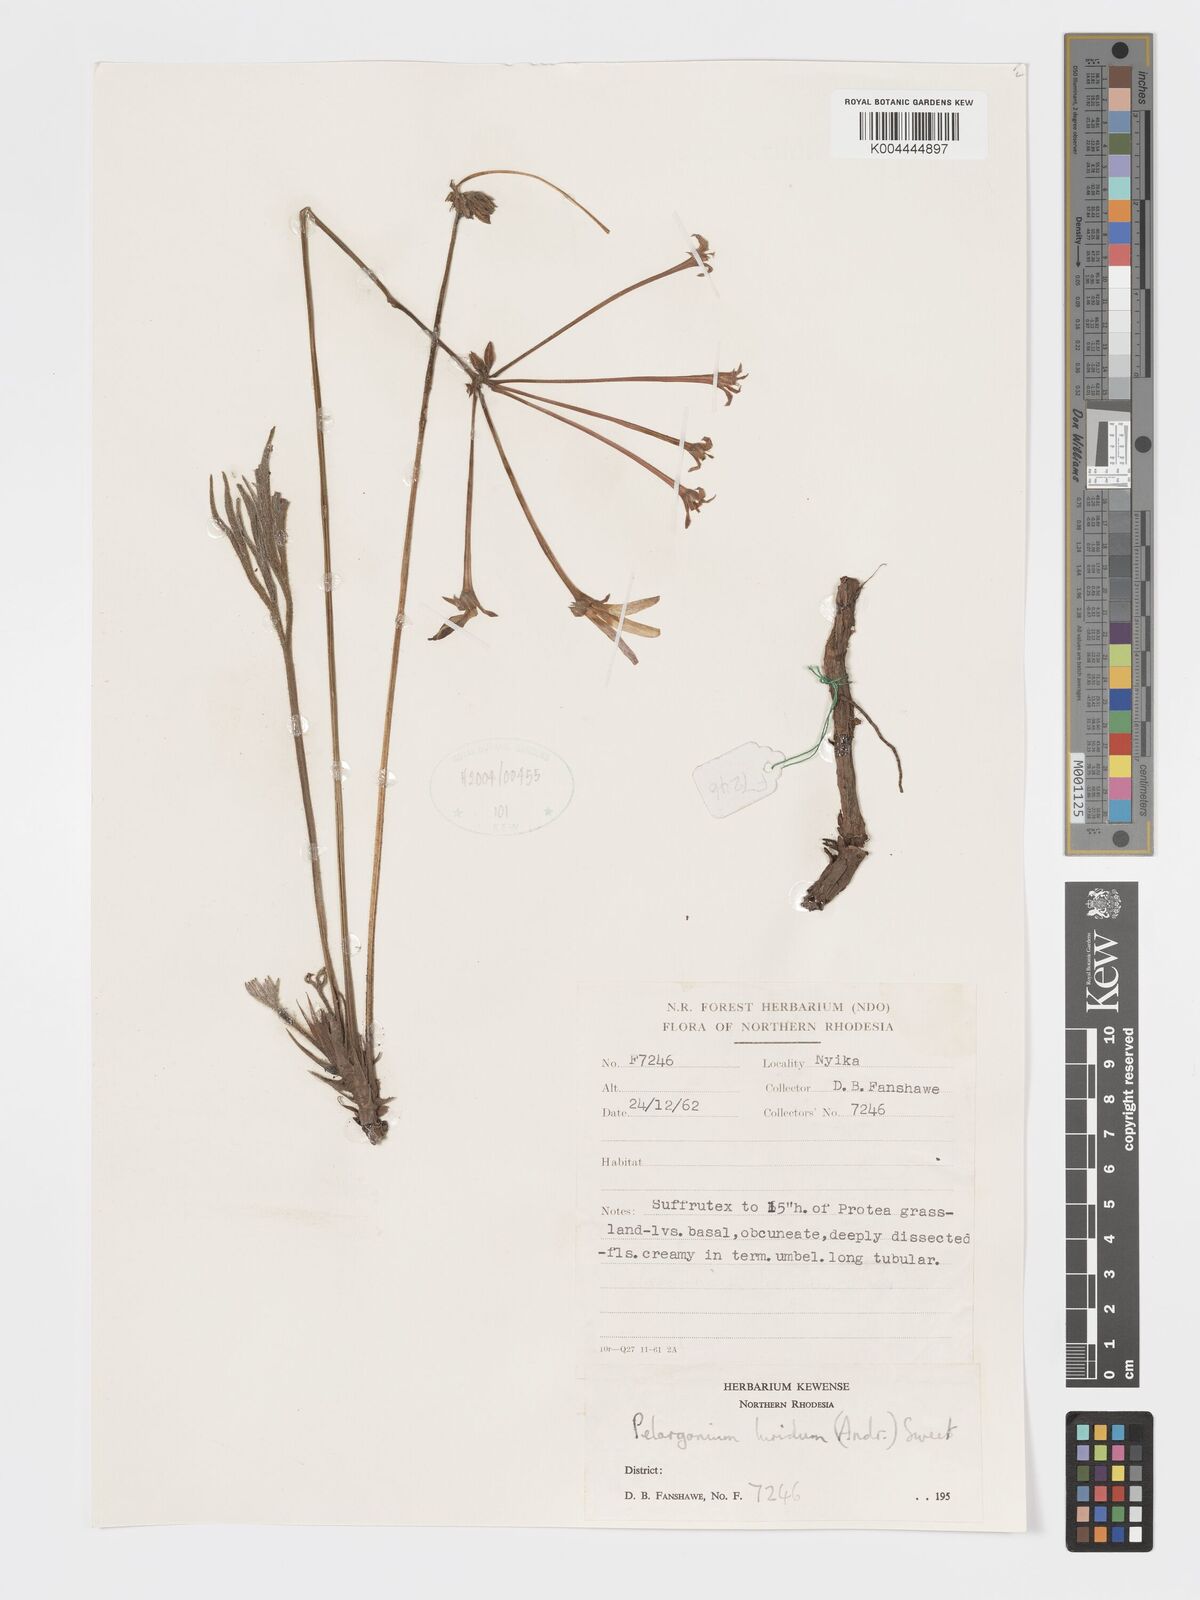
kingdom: Plantae
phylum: Tracheophyta
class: Magnoliopsida
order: Geraniales
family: Geraniaceae
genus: Pelargonium
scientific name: Pelargonium luridum
